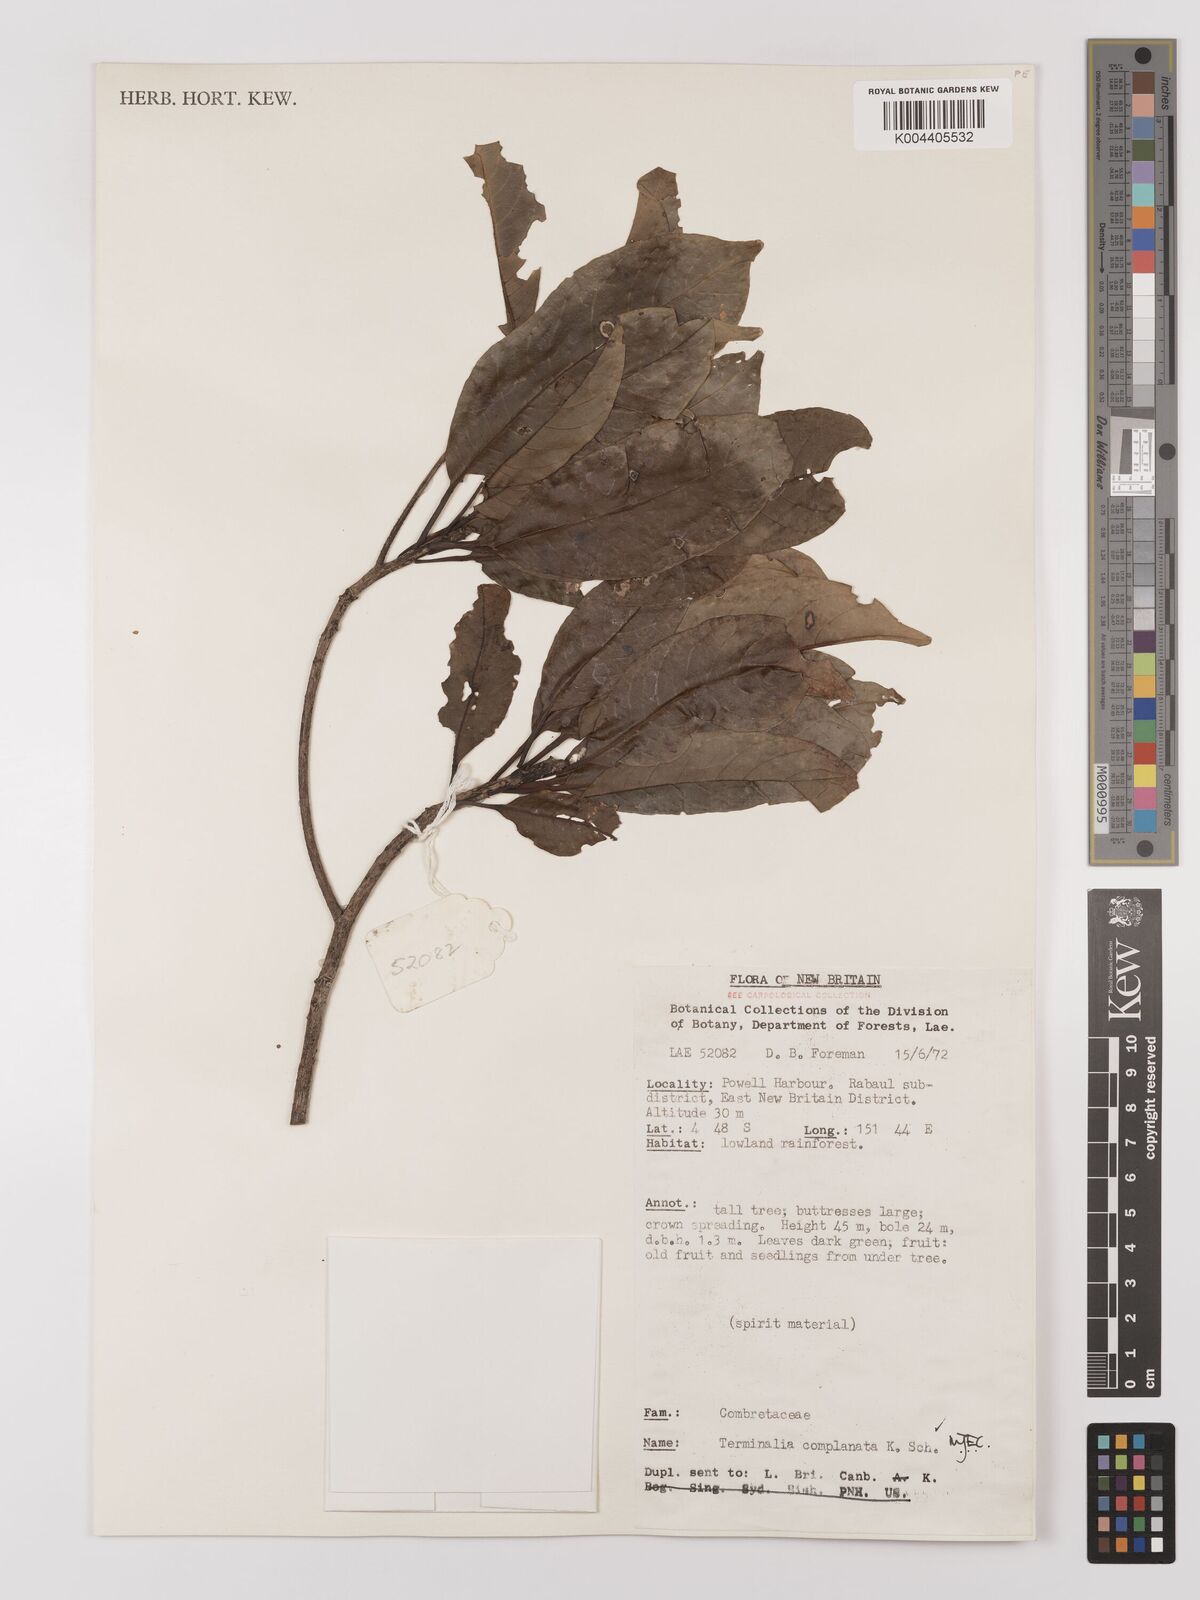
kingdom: Plantae
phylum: Tracheophyta
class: Magnoliopsida
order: Myrtales
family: Combretaceae
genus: Terminalia
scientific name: Terminalia
